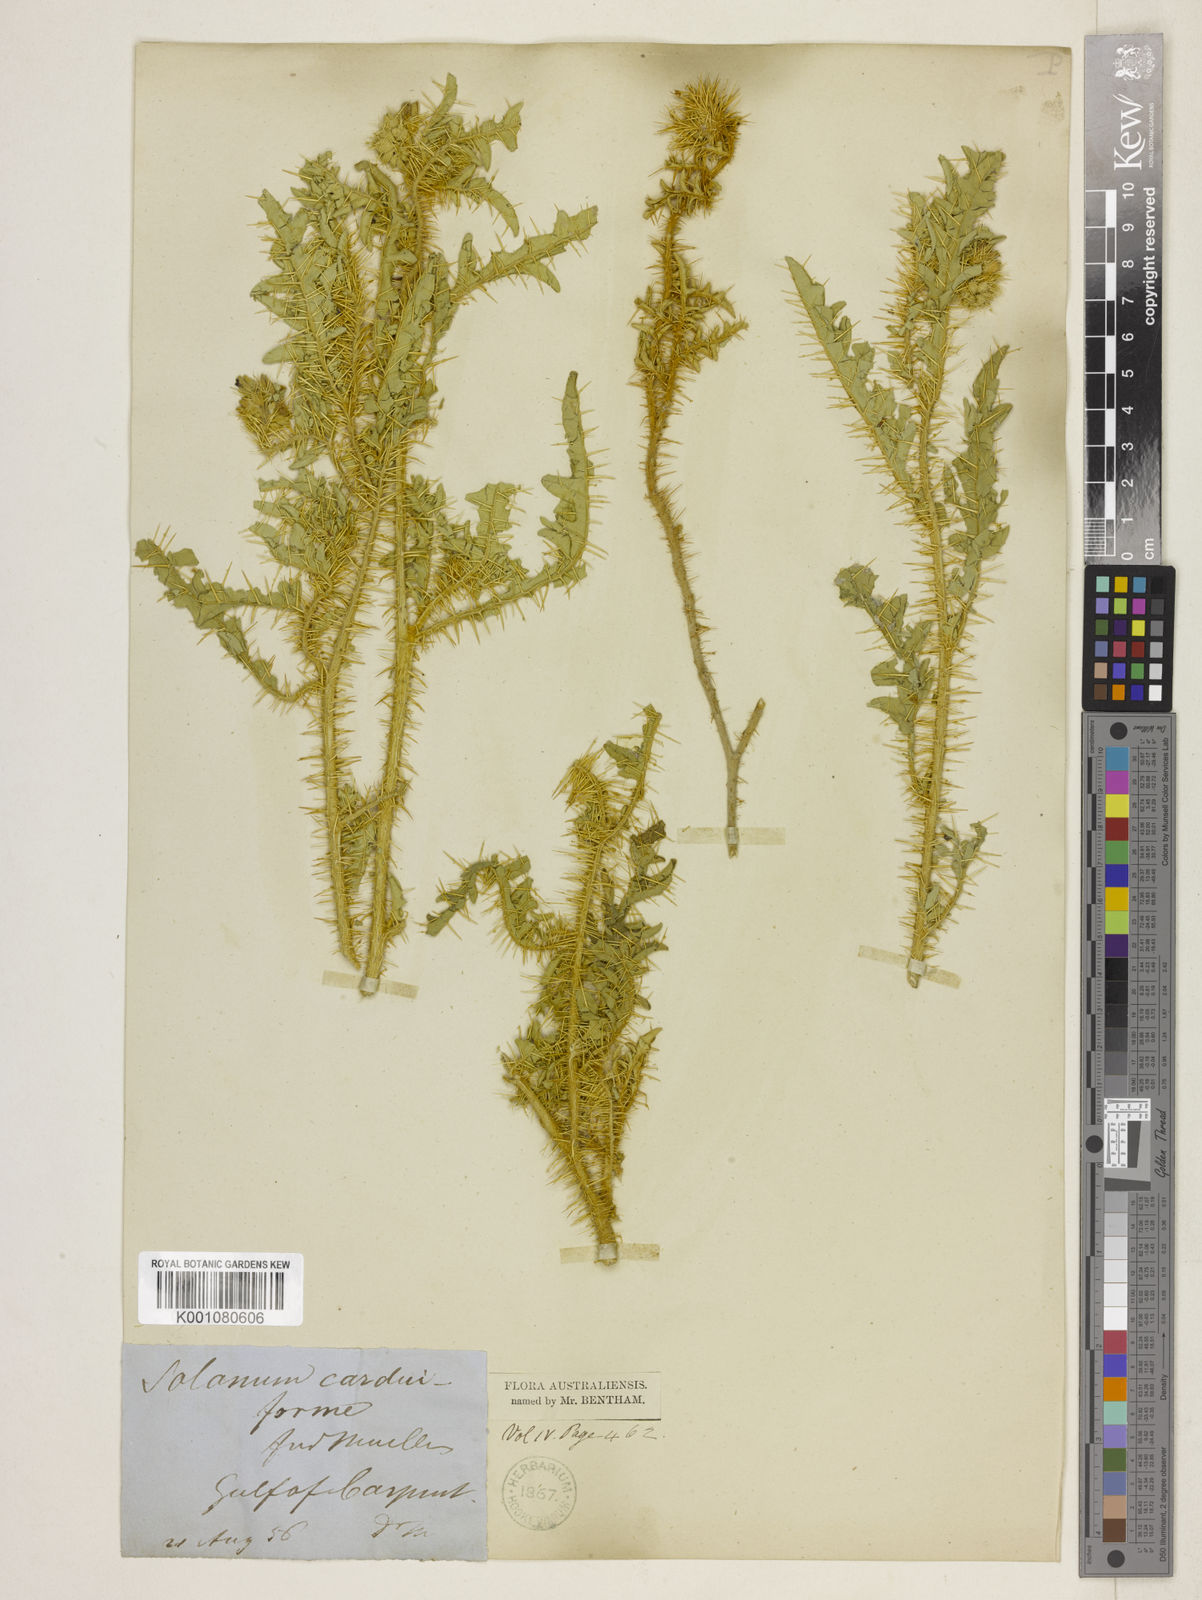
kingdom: Plantae
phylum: Tracheophyta
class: Magnoliopsida
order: Solanales
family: Solanaceae
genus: Solanum
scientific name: Solanum carduiforme
